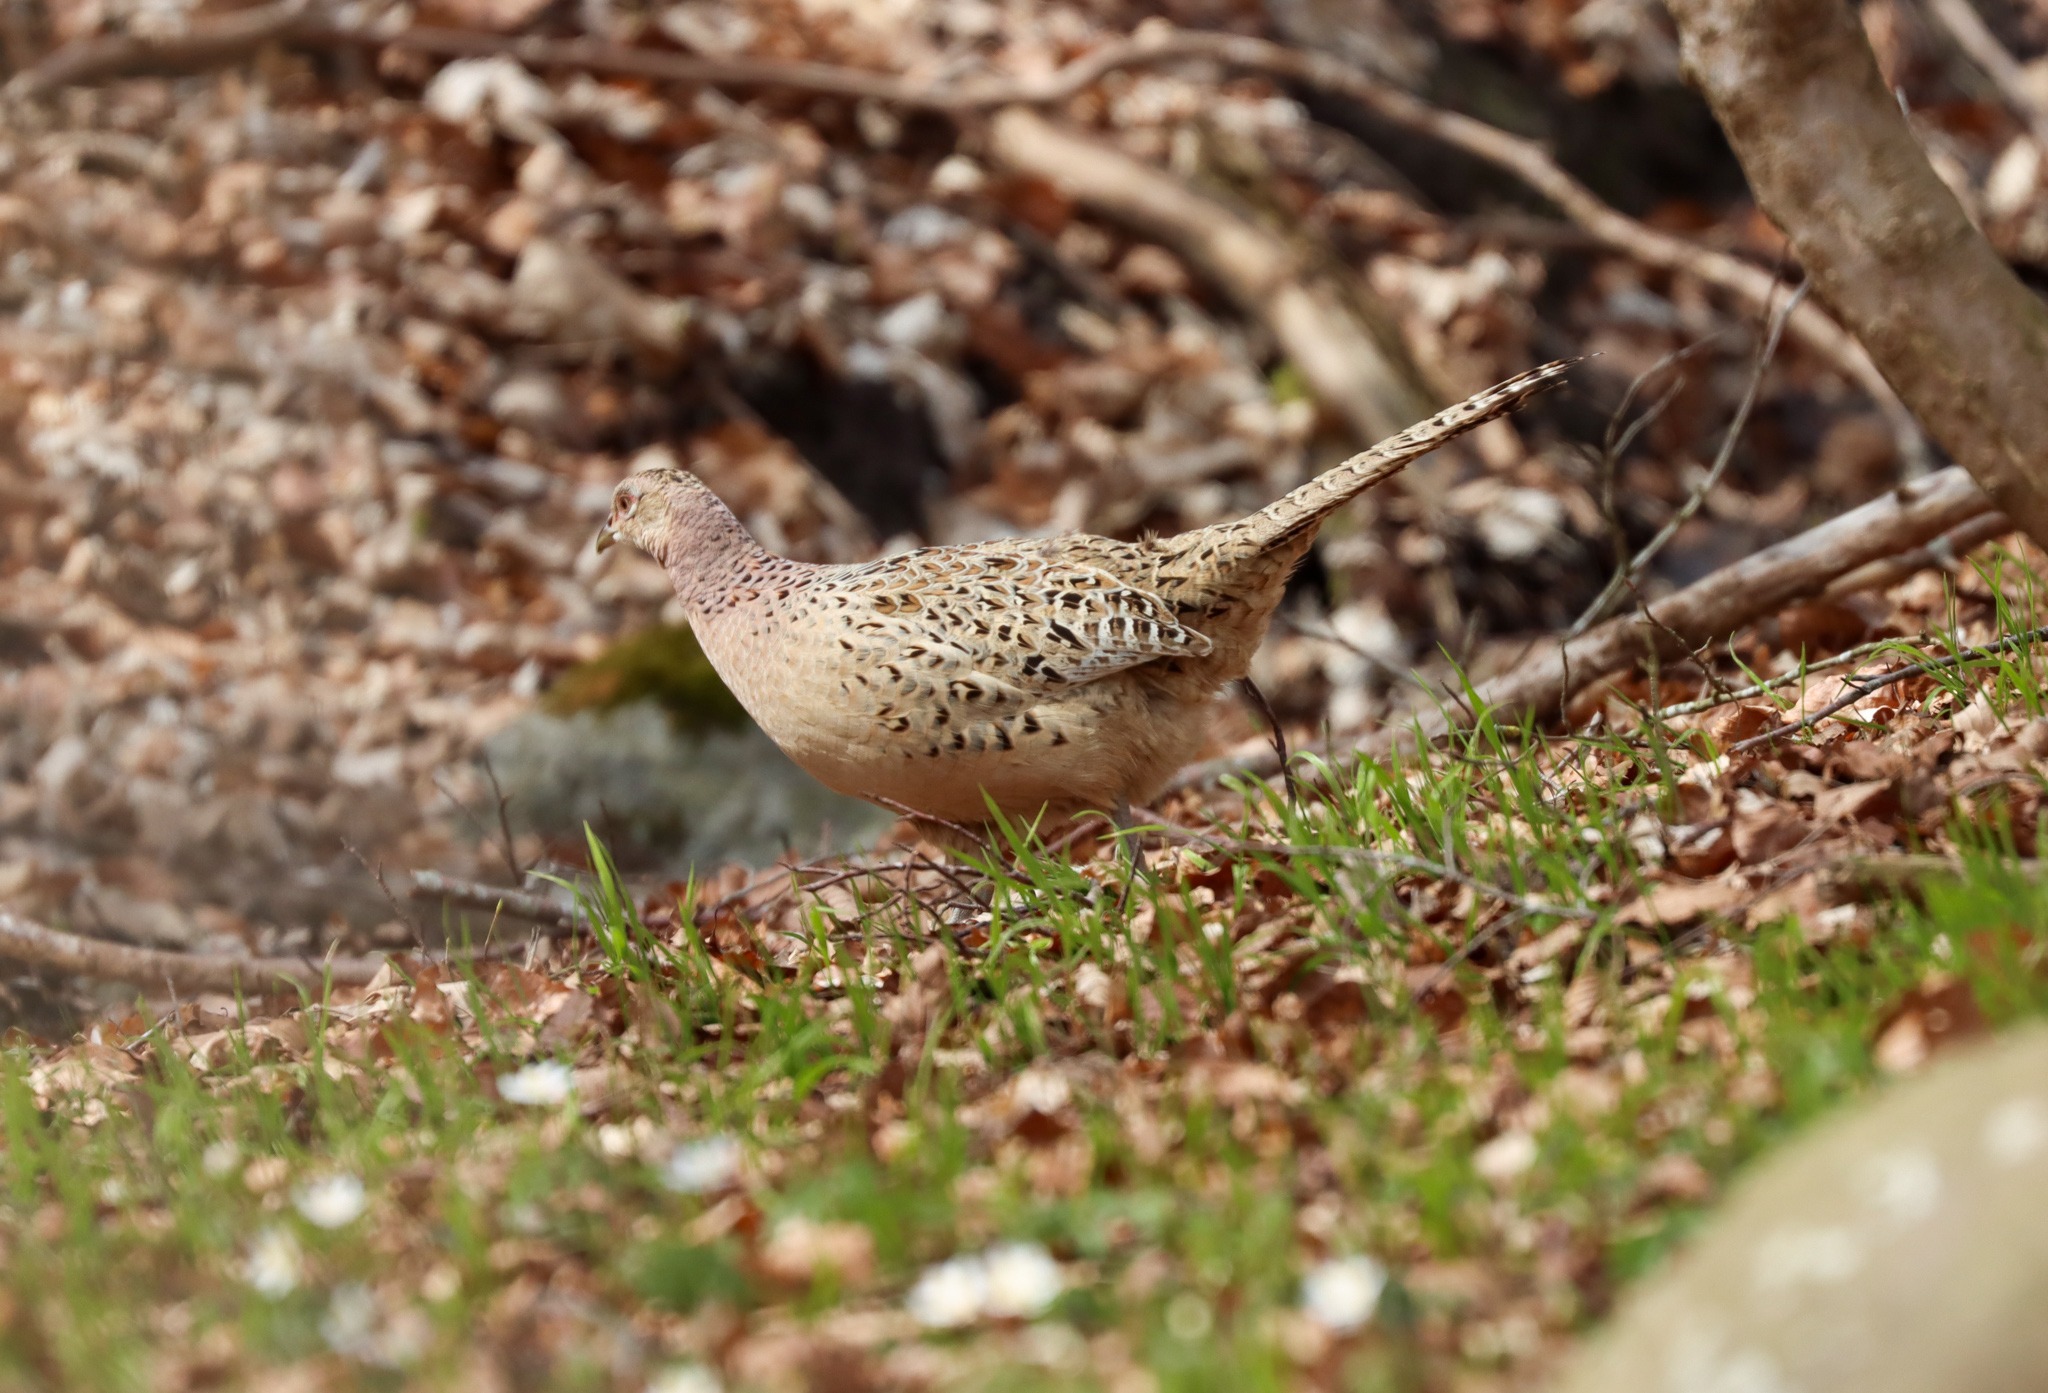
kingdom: Animalia
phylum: Chordata
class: Aves
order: Galliformes
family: Phasianidae
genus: Phasianus
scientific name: Phasianus colchicus
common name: Fasan
